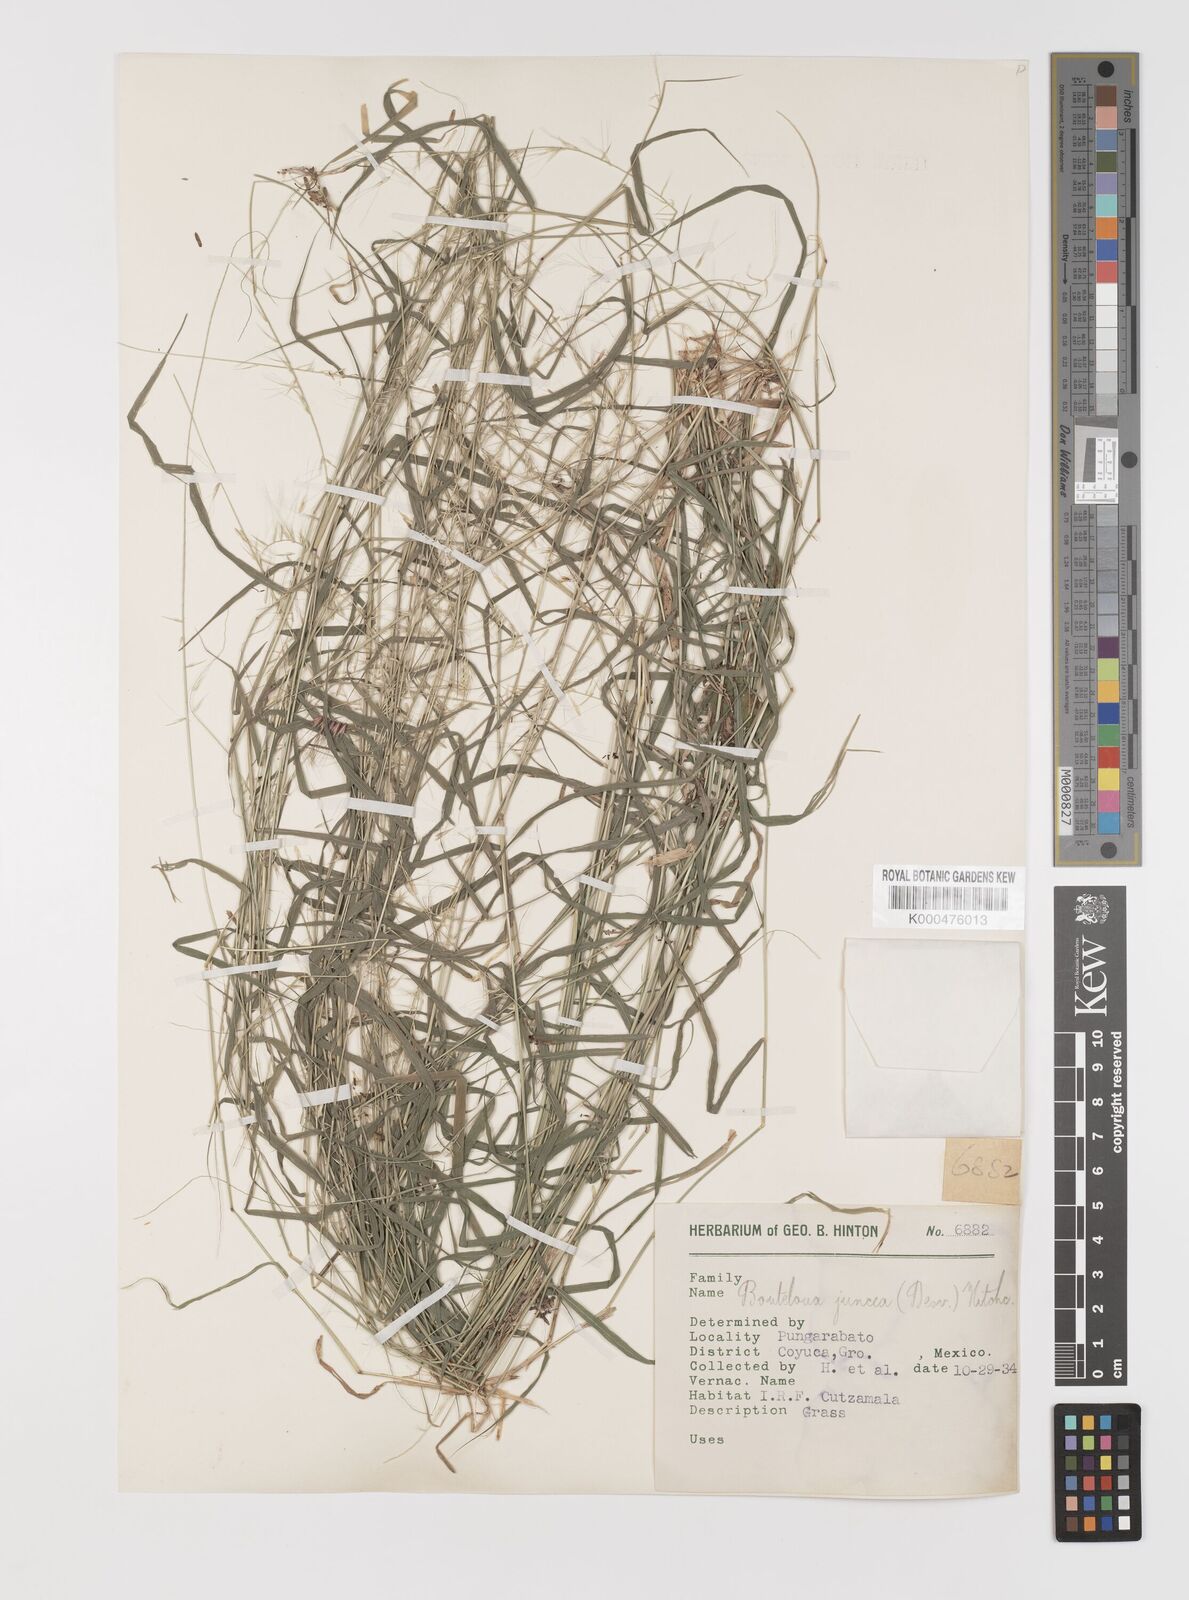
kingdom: Plantae
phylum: Tracheophyta
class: Liliopsida
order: Poales
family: Poaceae
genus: Bouteloua
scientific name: Bouteloua triaena
